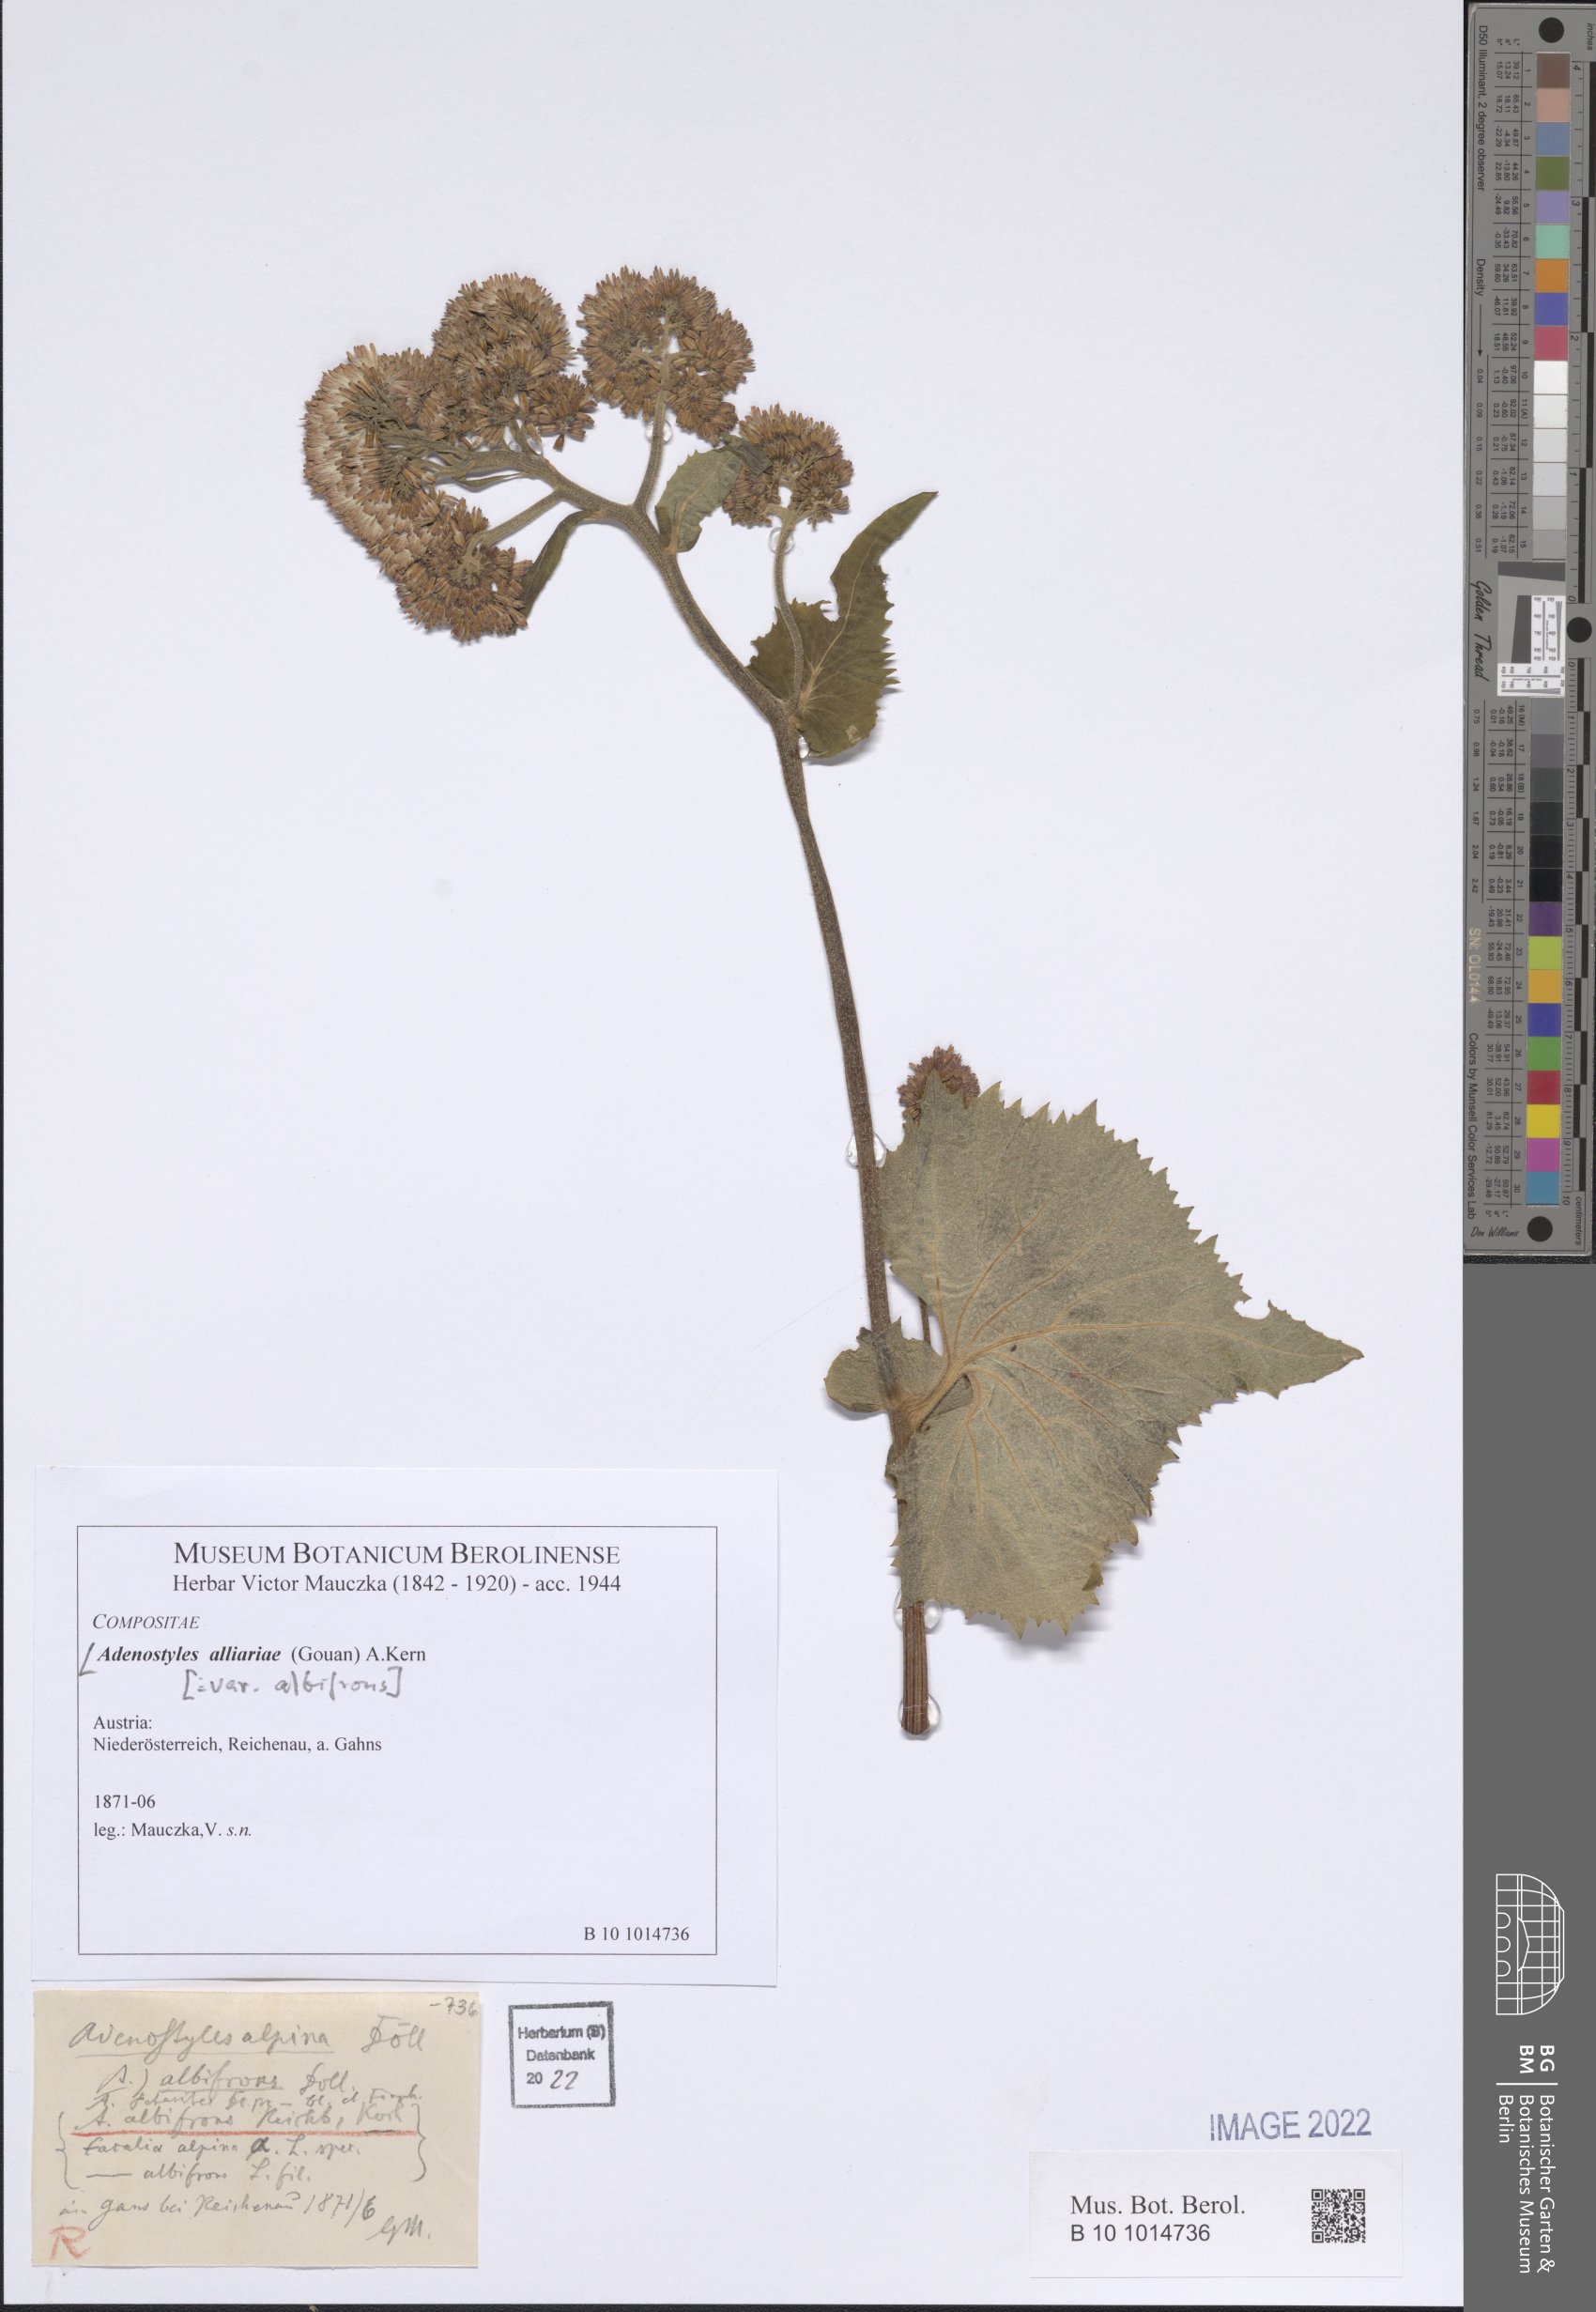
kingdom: Plantae
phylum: Tracheophyta
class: Magnoliopsida
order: Asterales
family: Asteraceae
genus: Adenostyles
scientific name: Adenostyles alliariae
